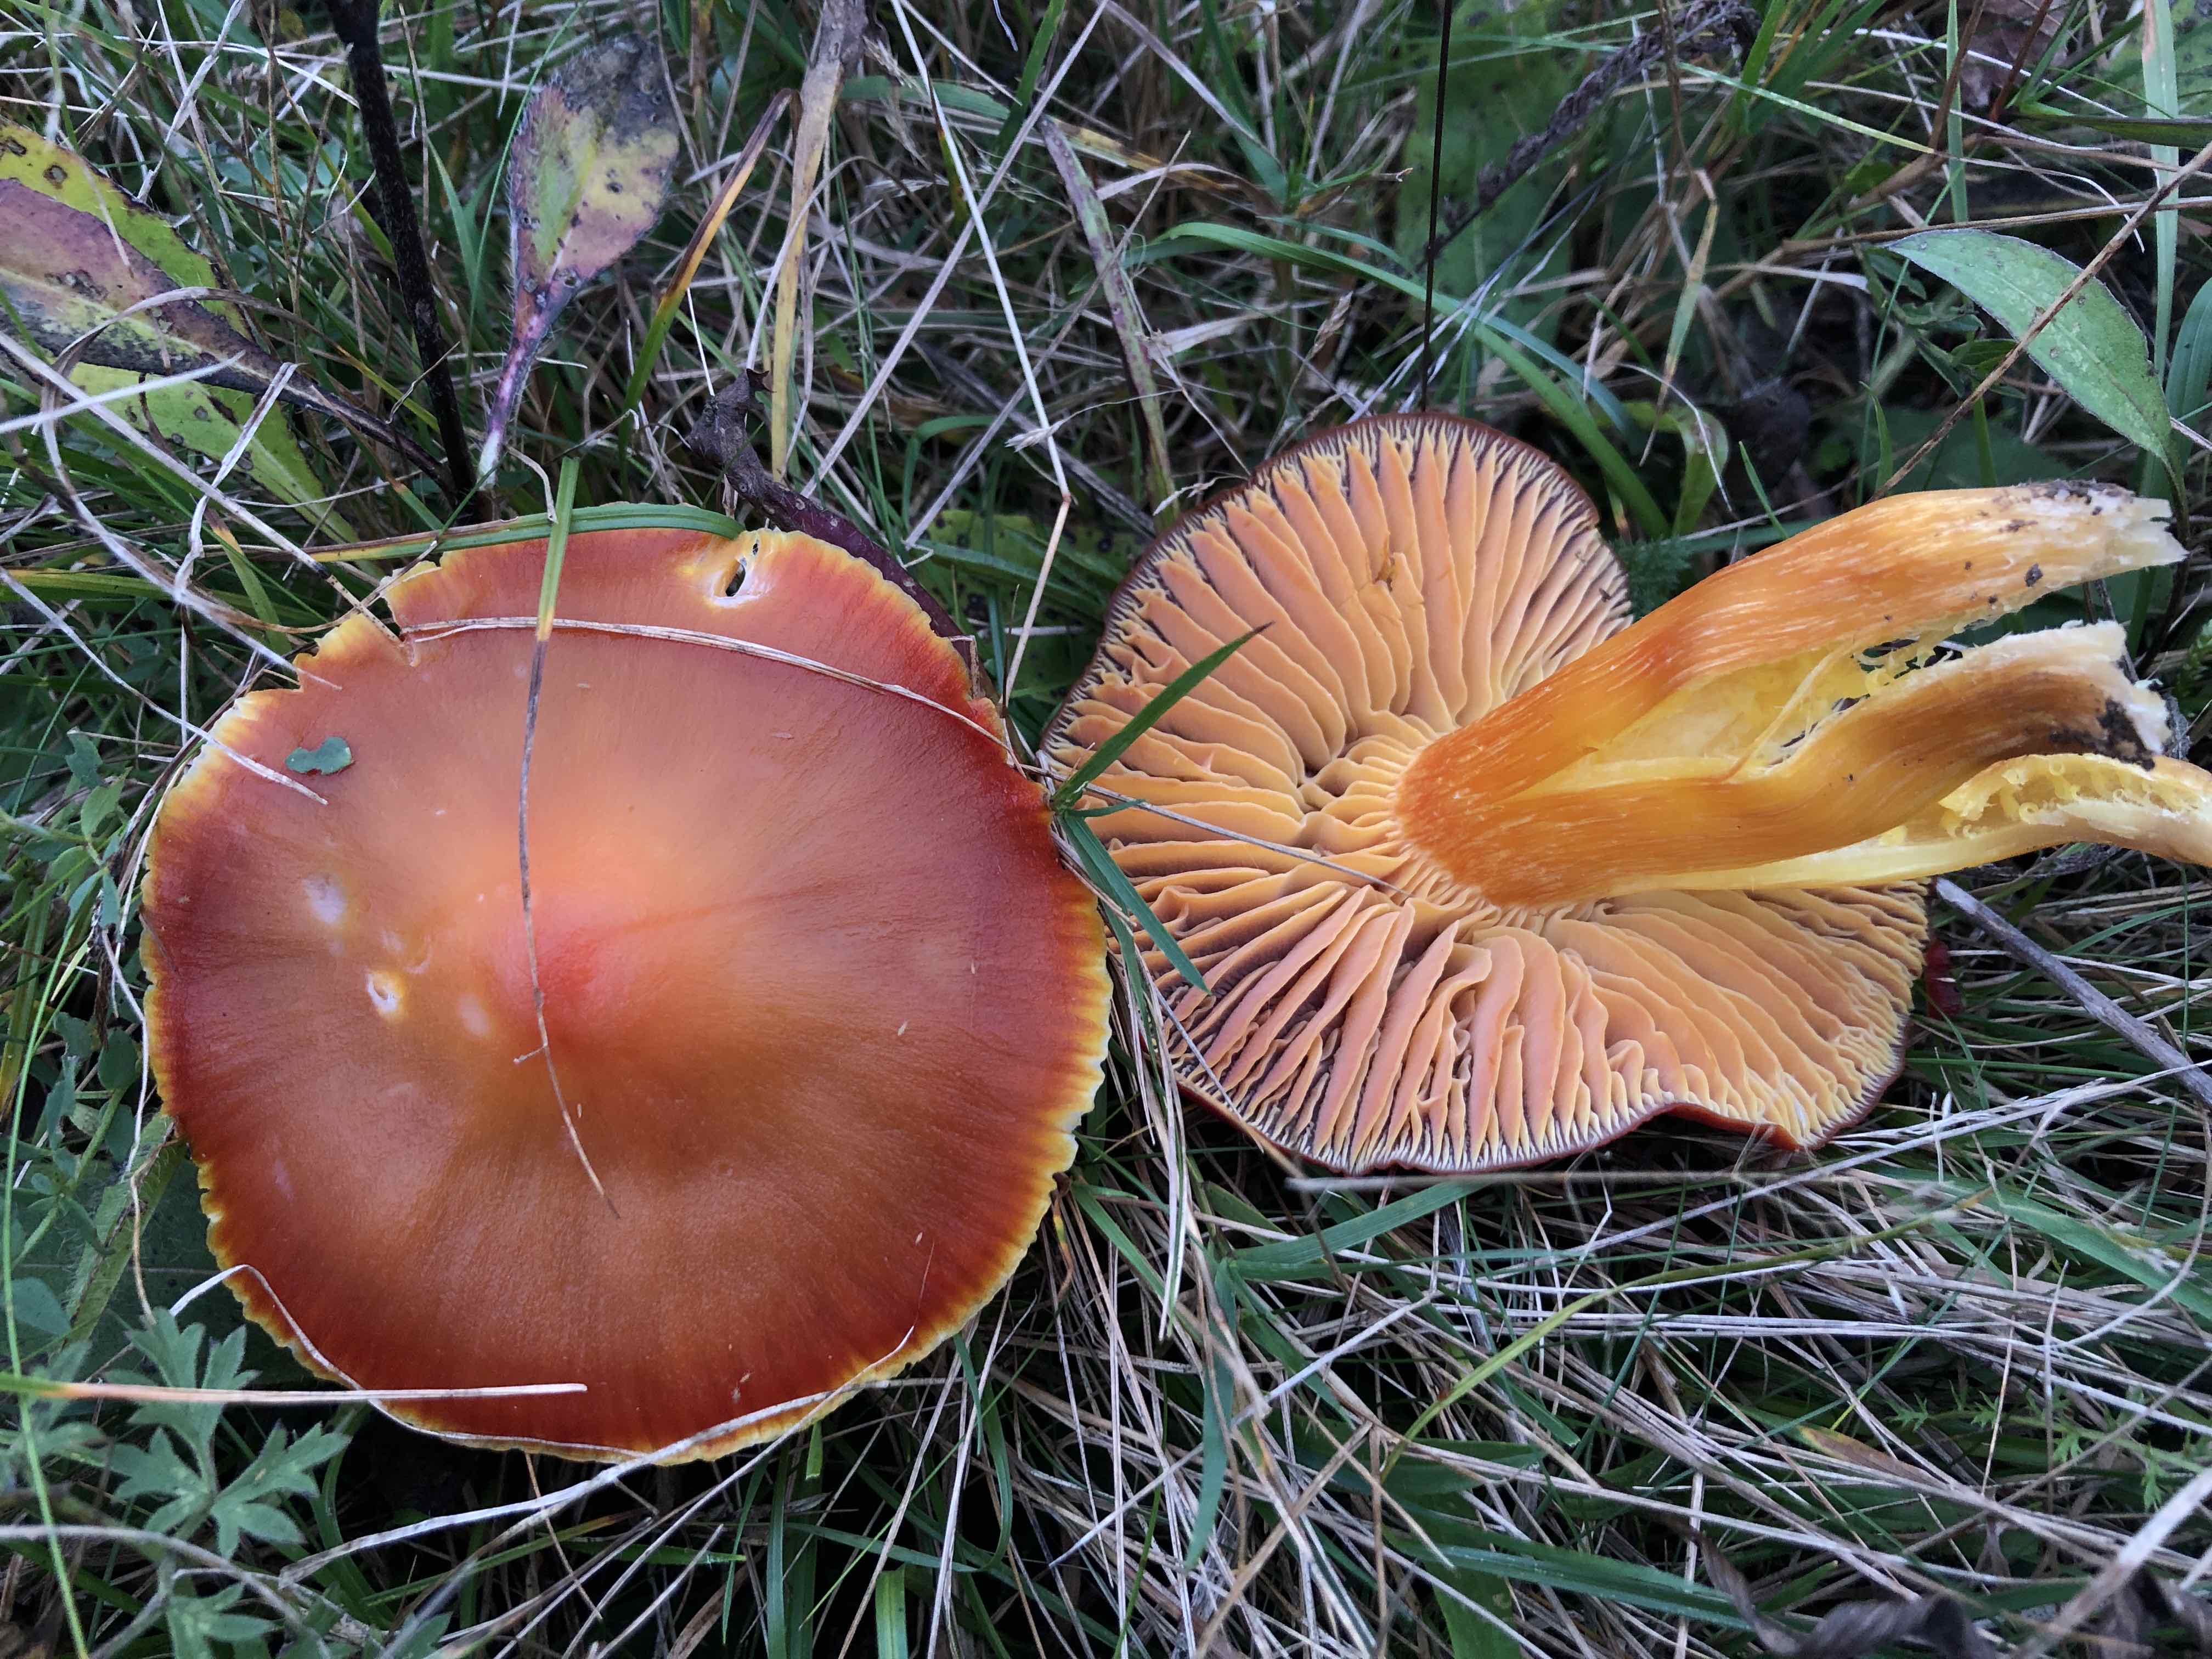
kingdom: Fungi
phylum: Basidiomycota
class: Agaricomycetes
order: Agaricales
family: Hygrophoraceae
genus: Hygrocybe
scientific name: Hygrocybe punicea
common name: skarlagen-vokshat
